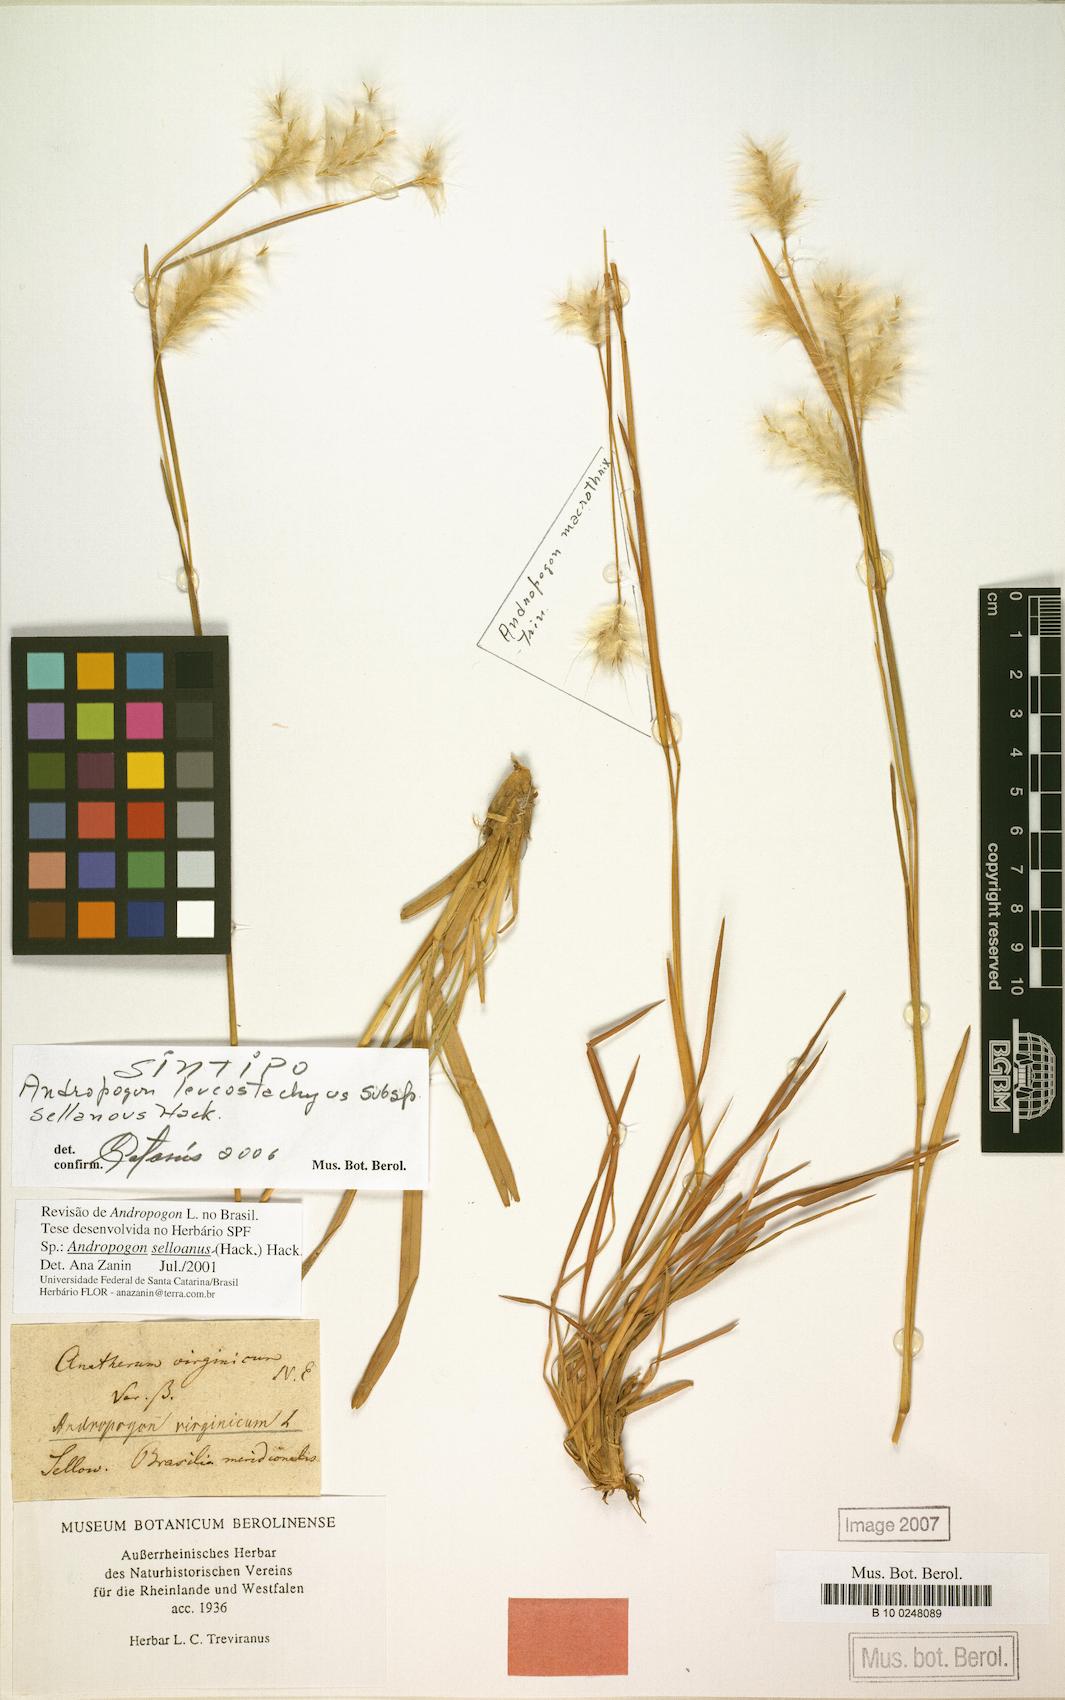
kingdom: Plantae
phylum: Tracheophyta
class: Liliopsida
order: Poales
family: Poaceae
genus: Andropogon
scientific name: Andropogon selloanus
